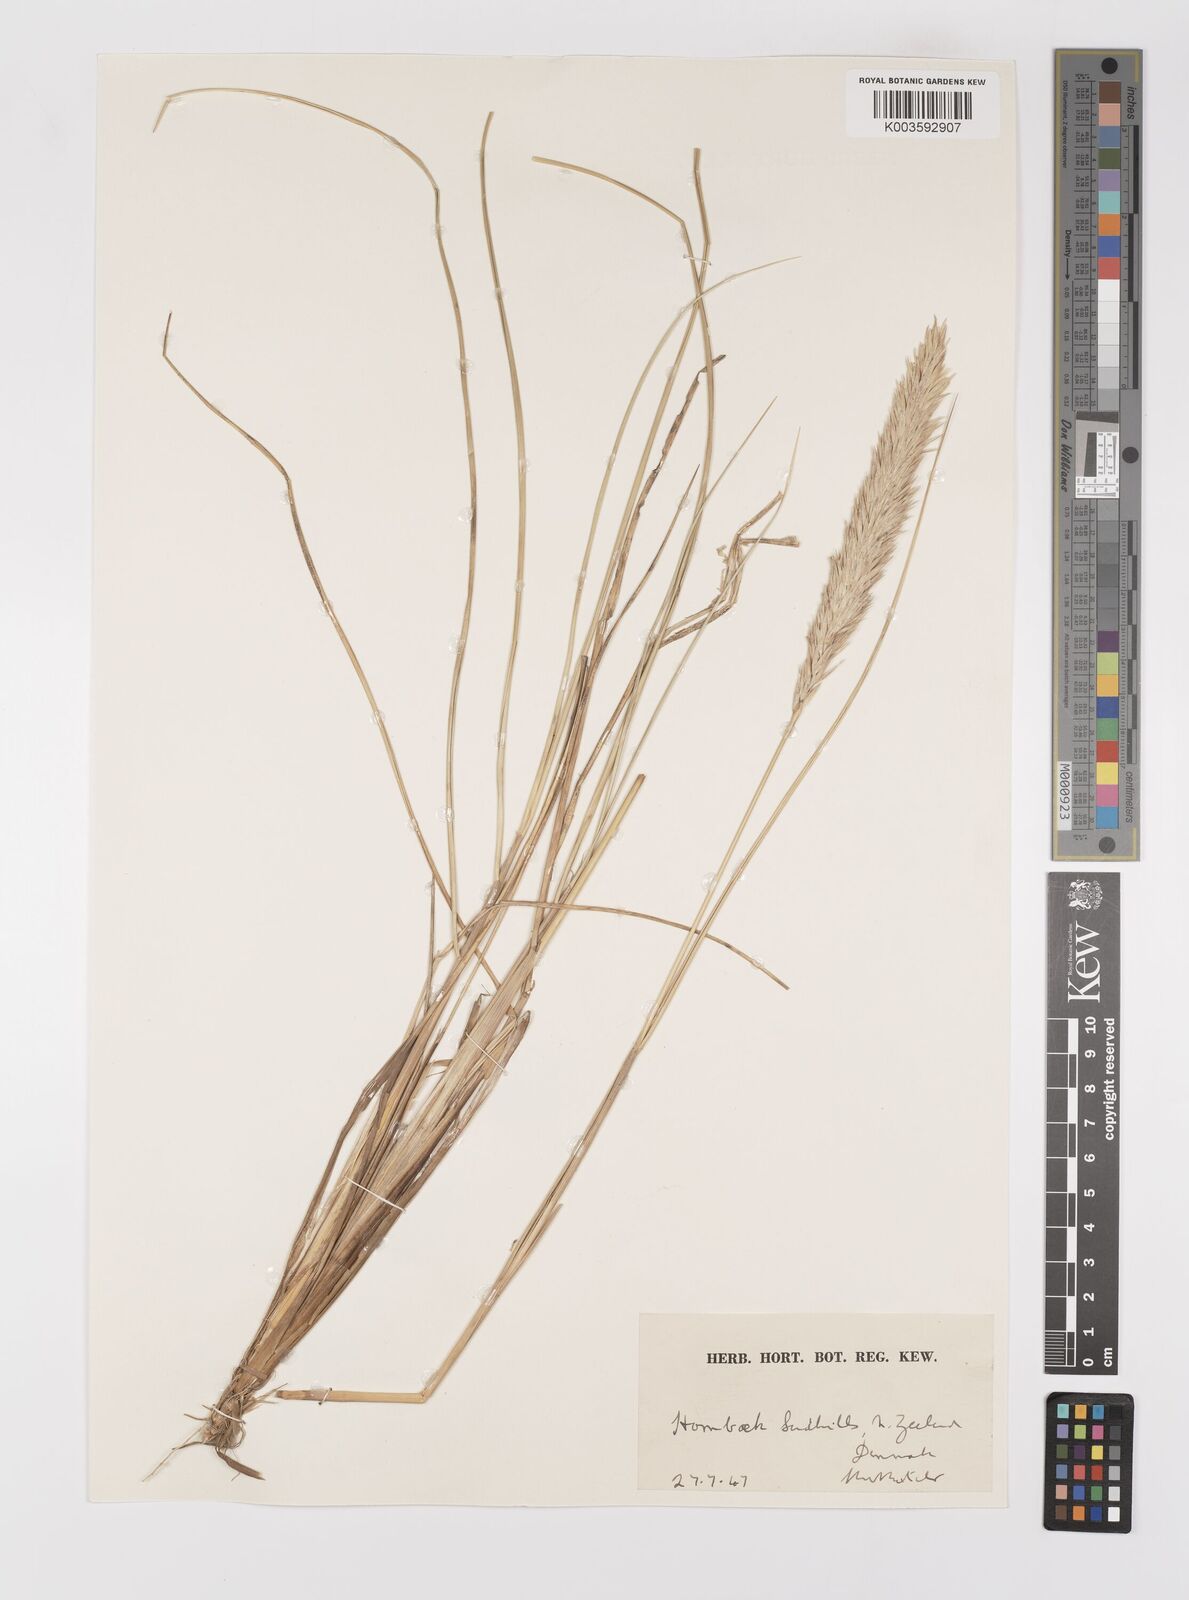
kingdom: Plantae
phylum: Tracheophyta
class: Liliopsida
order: Poales
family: Poaceae
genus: Calamagrostis
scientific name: Calamagrostis arenaria
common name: European beachgrass
